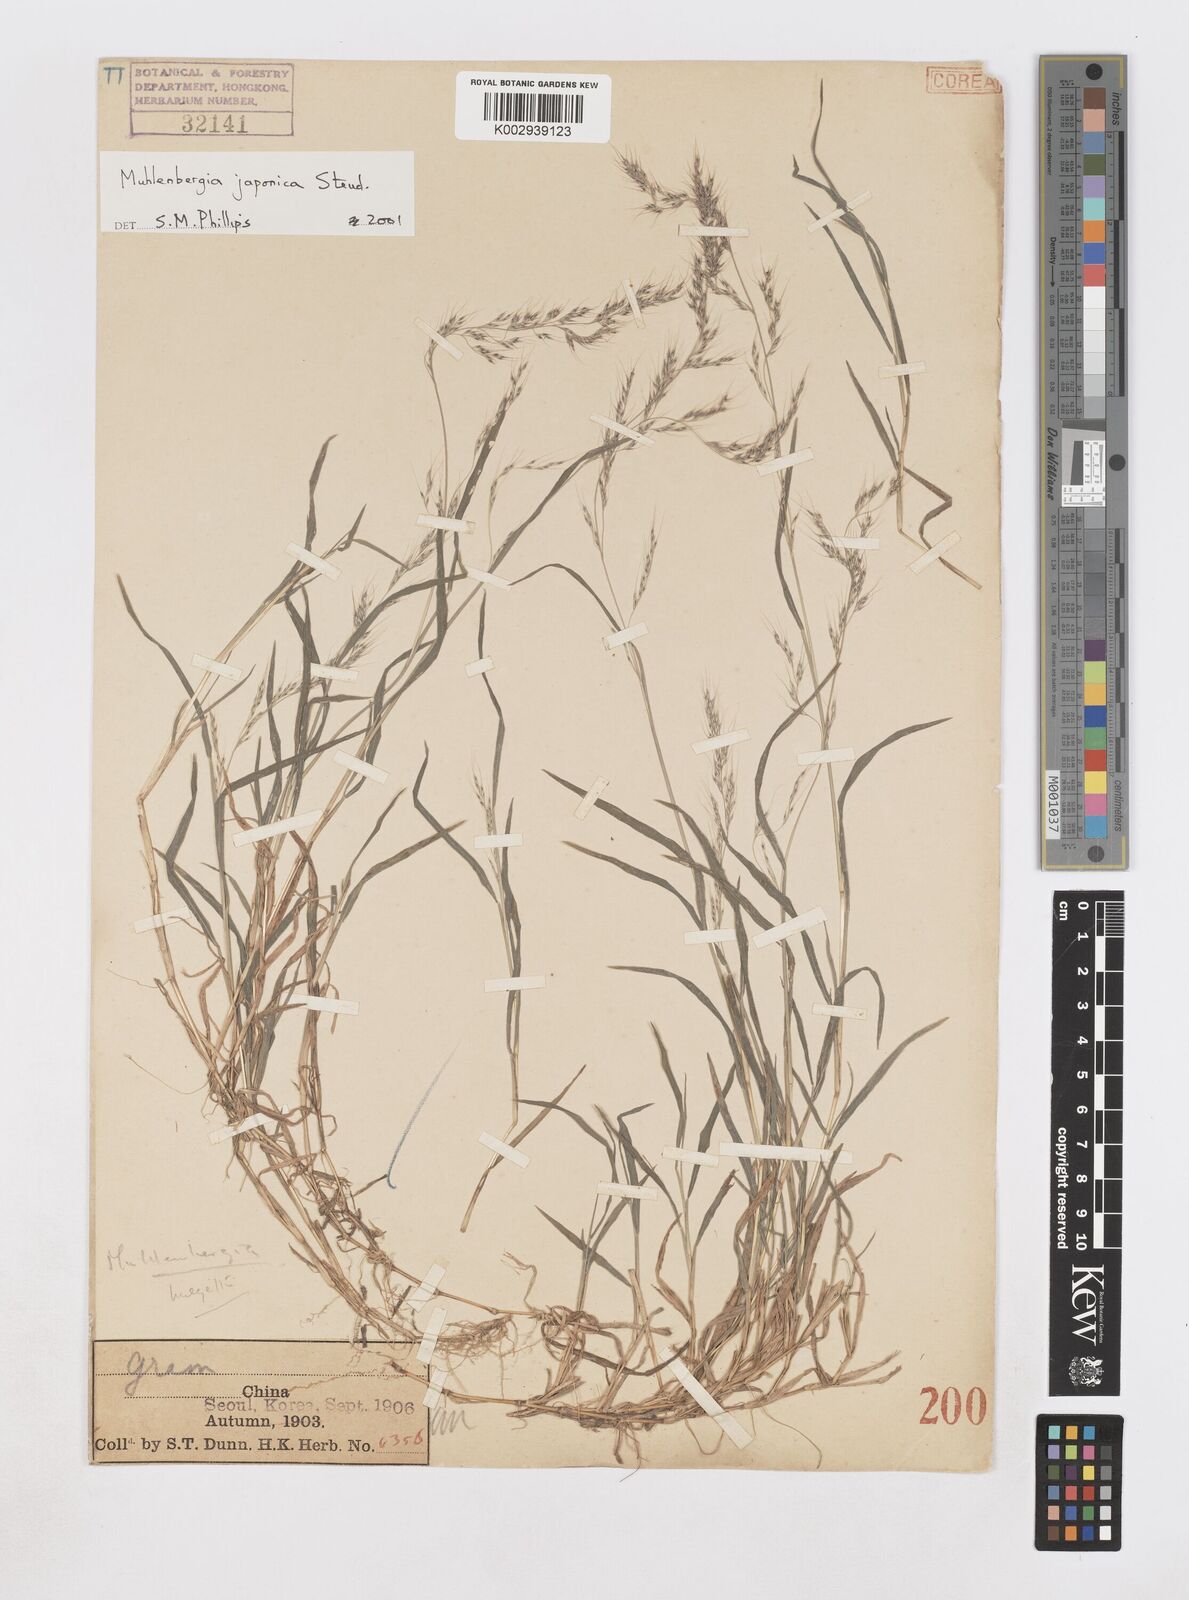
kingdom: Plantae
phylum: Tracheophyta
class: Liliopsida
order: Poales
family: Poaceae
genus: Muhlenbergia
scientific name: Muhlenbergia japonica
